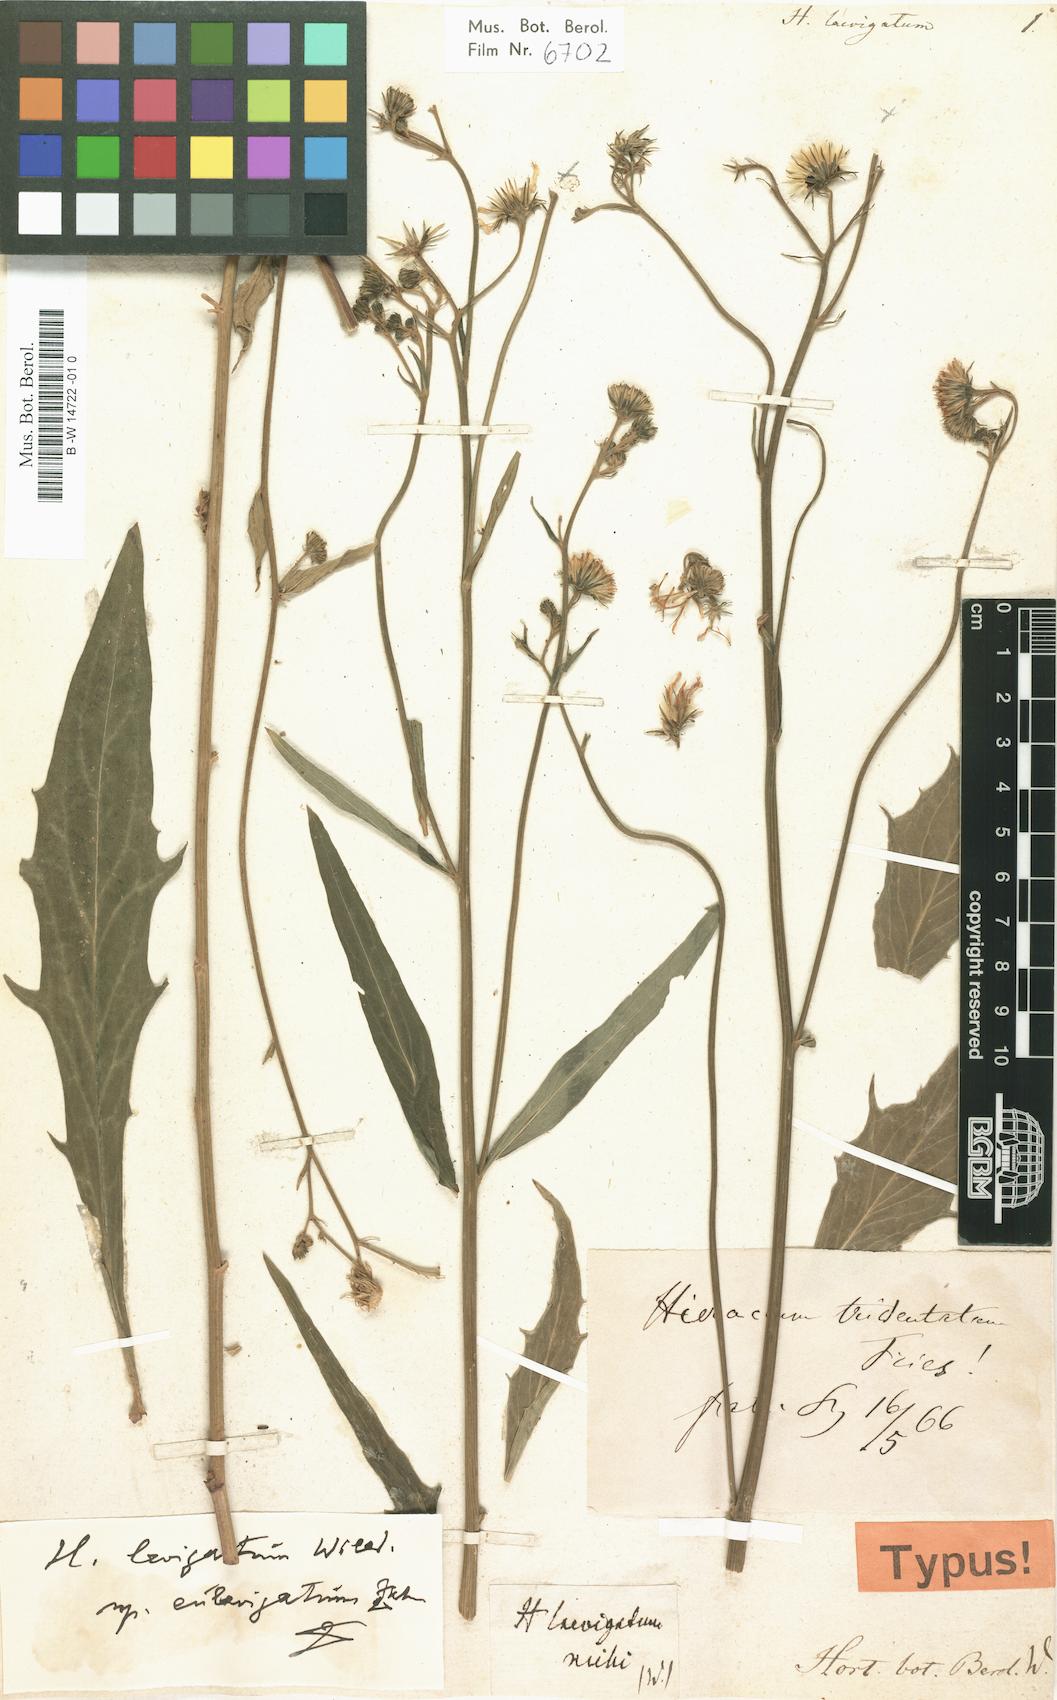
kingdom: Plantae
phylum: Tracheophyta
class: Magnoliopsida
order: Asterales
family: Asteraceae
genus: Hieracium
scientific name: Hieracium laevigatum
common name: Smooth hawkweed
